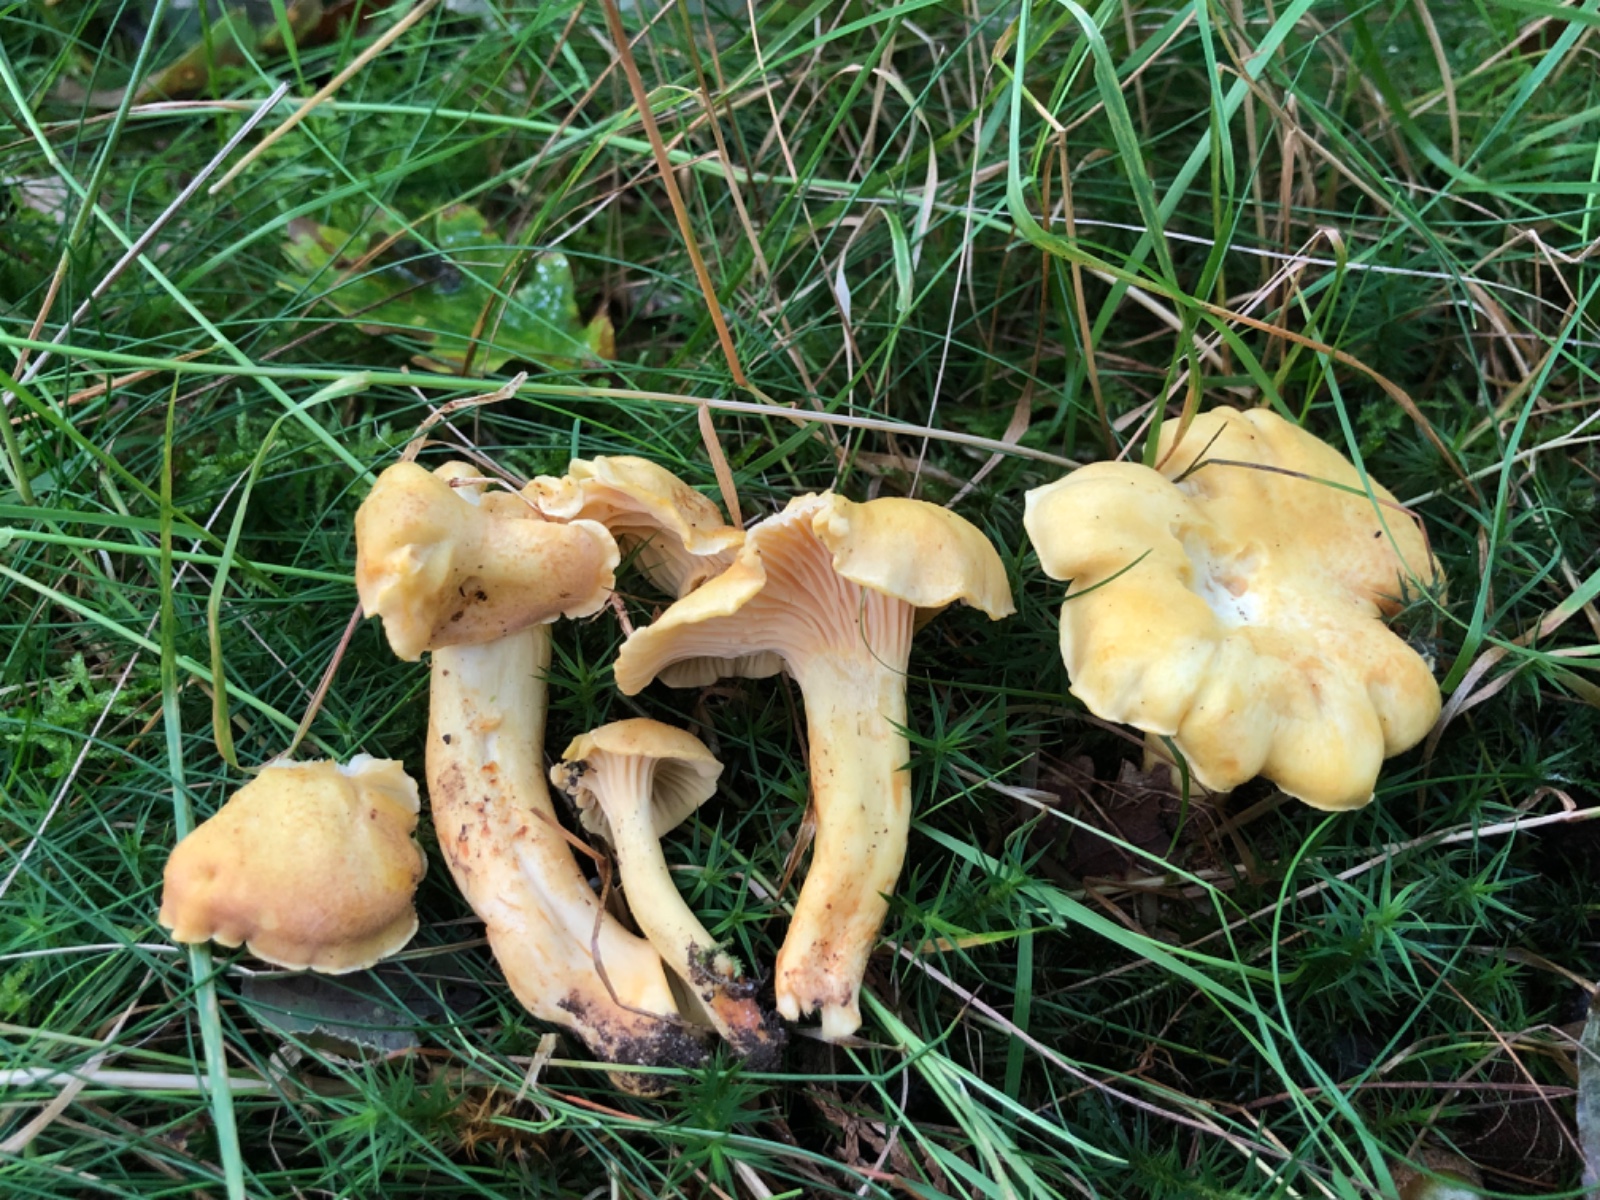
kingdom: Fungi
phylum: Basidiomycota
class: Agaricomycetes
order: Cantharellales
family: Hydnaceae
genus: Cantharellus
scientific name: Cantharellus
